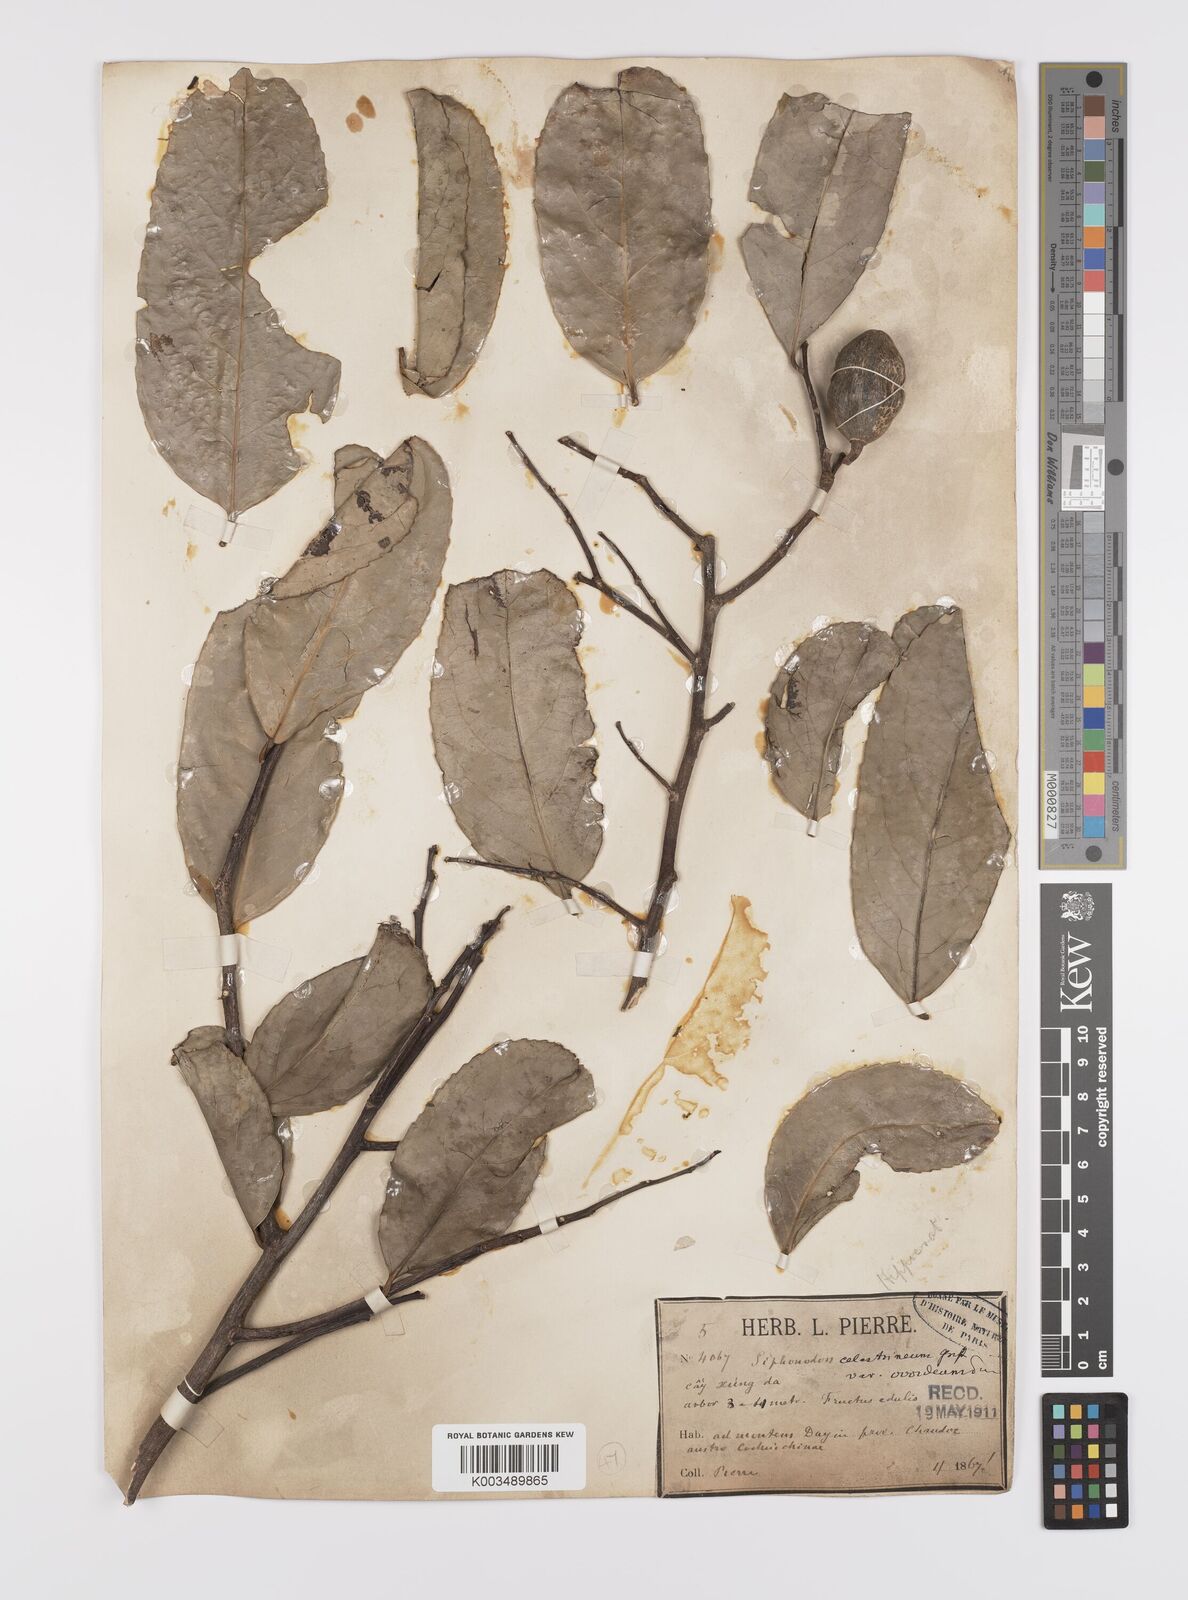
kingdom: Plantae
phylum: Tracheophyta
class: Magnoliopsida
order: Celastrales
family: Celastraceae
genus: Siphonodon
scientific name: Siphonodon celastrineus
